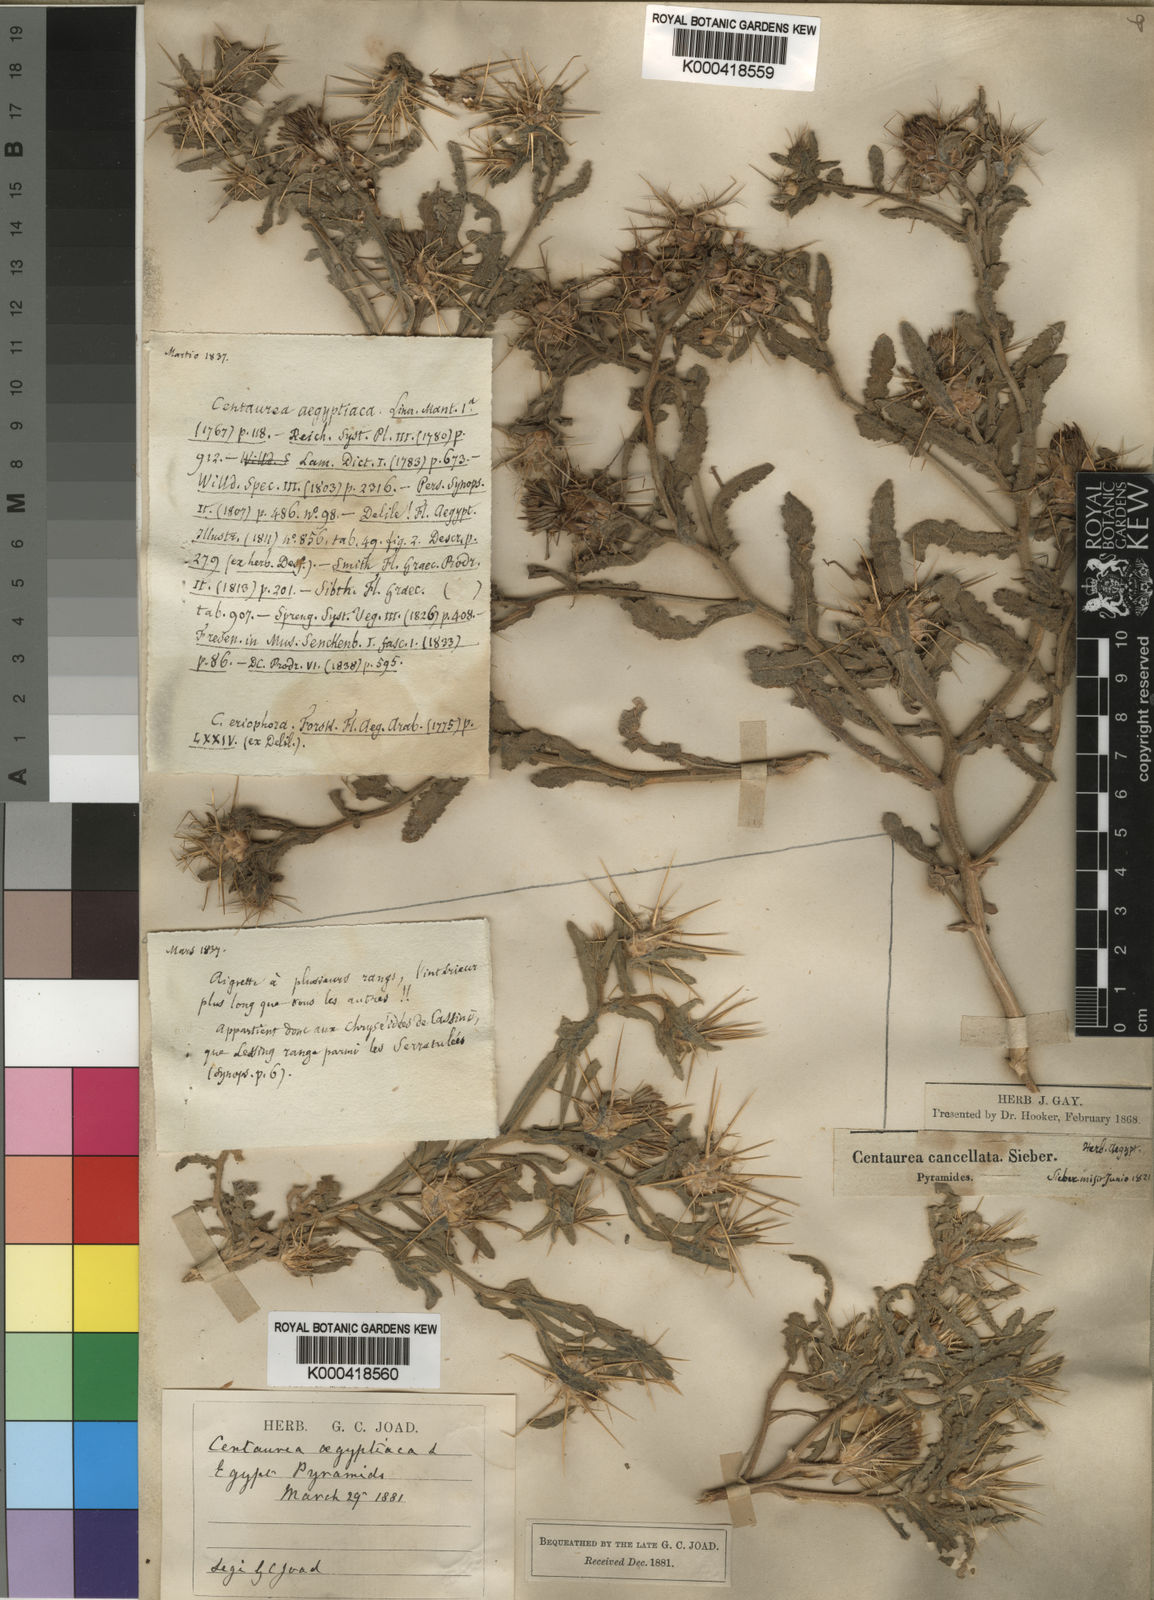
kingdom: Plantae
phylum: Tracheophyta
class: Magnoliopsida
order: Asterales
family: Asteraceae
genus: Centaurea
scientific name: Centaurea aegyptiaca
